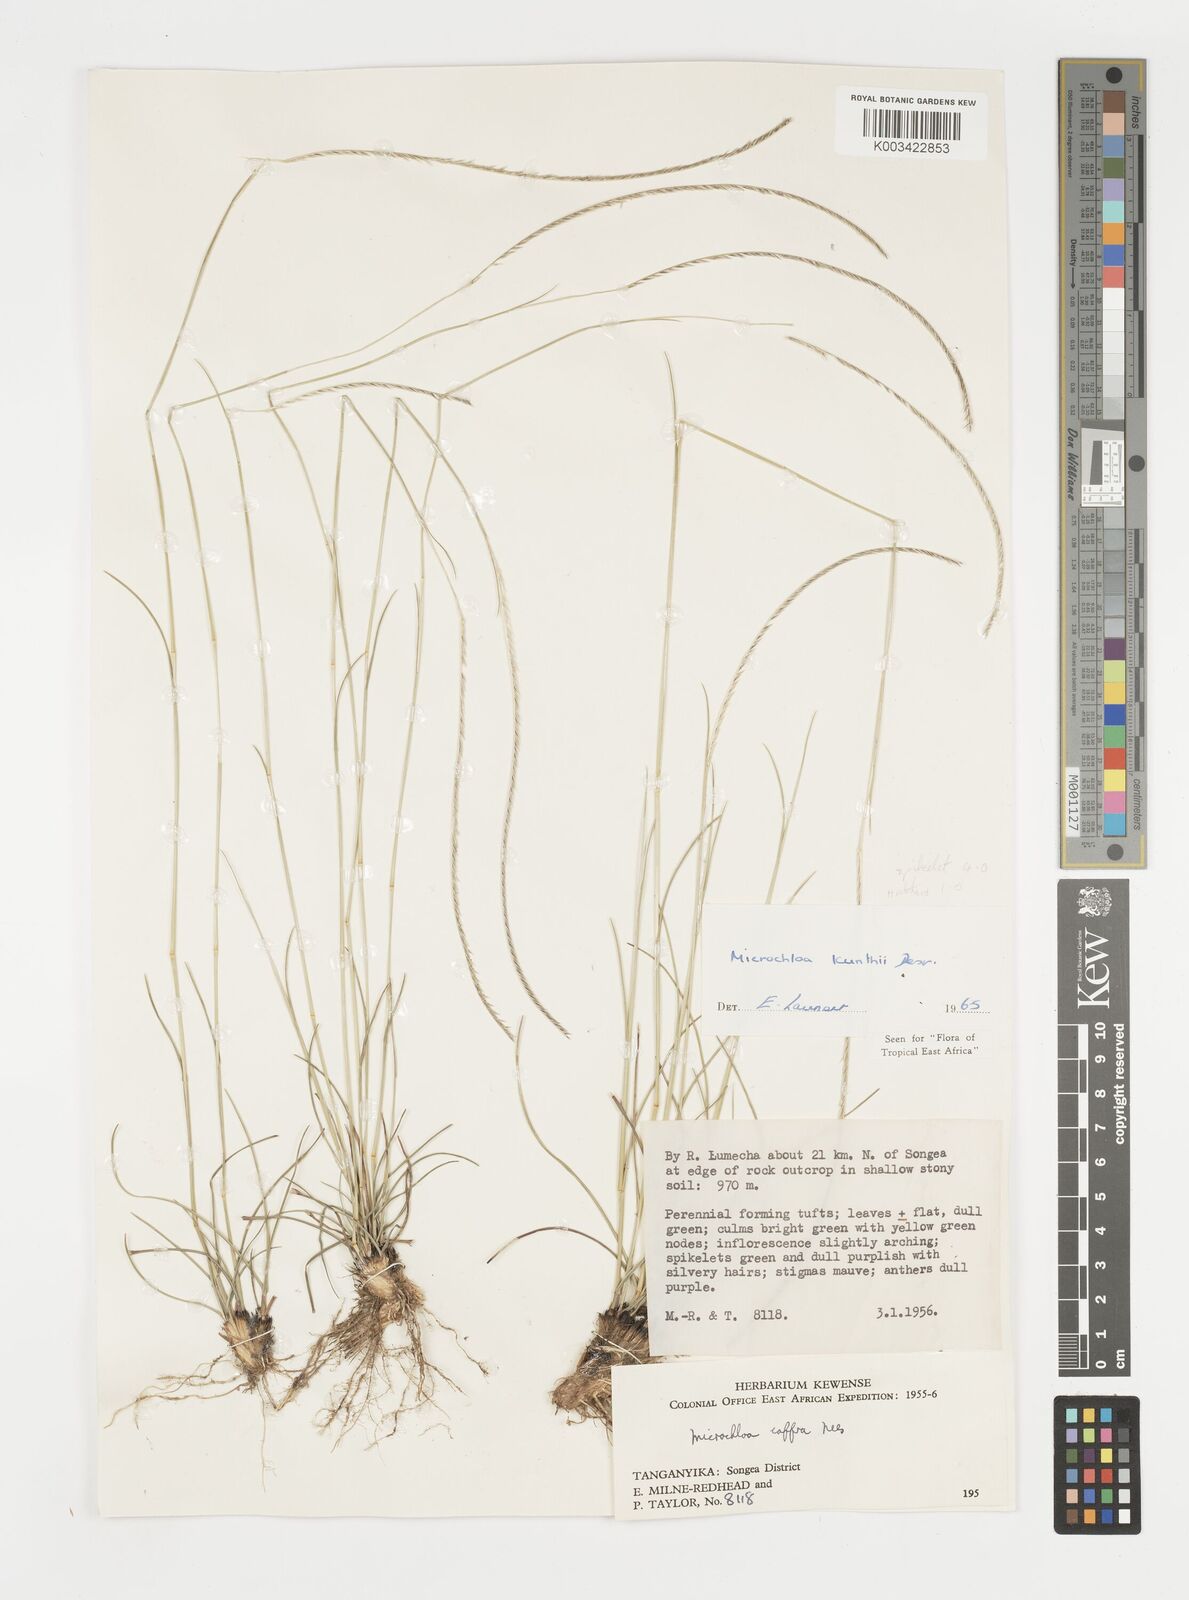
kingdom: Plantae
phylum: Tracheophyta
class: Liliopsida
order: Poales
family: Poaceae
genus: Microchloa
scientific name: Microchloa kunthii
